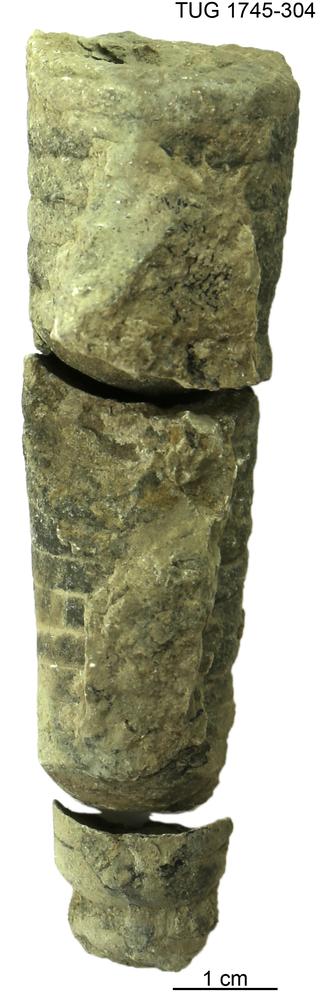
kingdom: Animalia
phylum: Mollusca
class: Cephalopoda
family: Oncoceratidae
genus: Beloitoceras
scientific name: Beloitoceras
